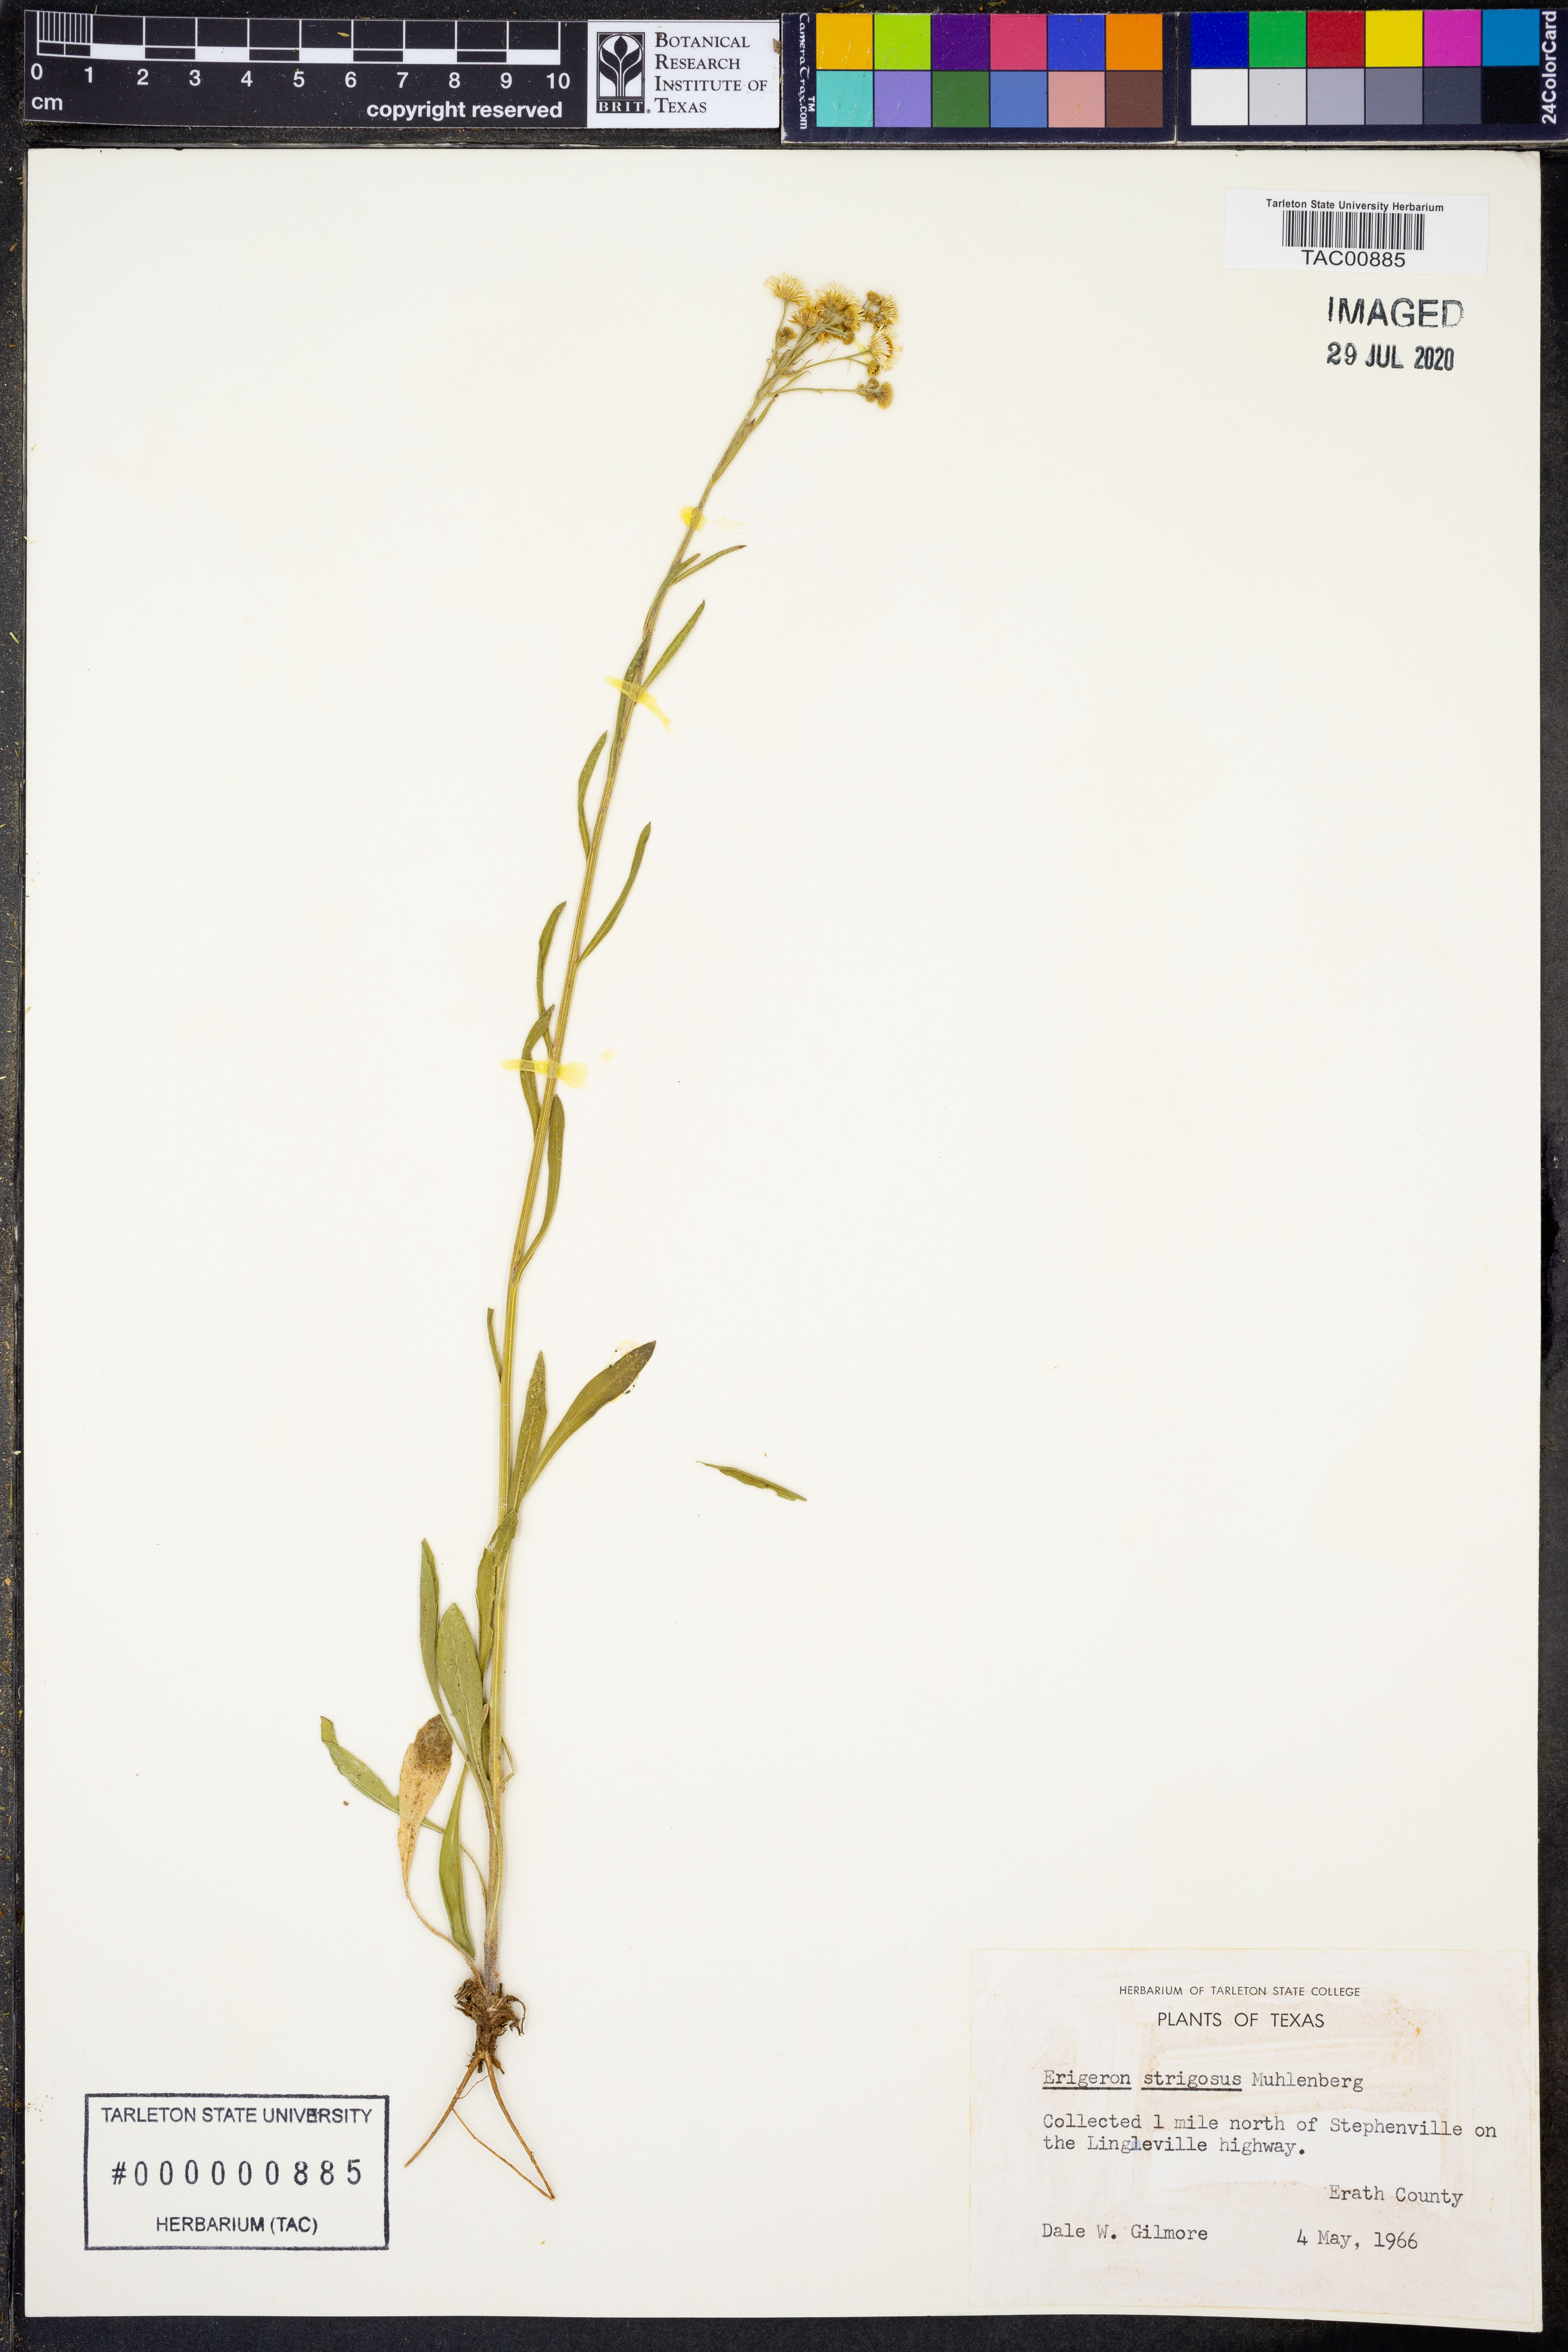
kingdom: Plantae
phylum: Tracheophyta
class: Magnoliopsida
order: Asterales
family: Asteraceae
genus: Erigeron
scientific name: Erigeron strigosus
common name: Common eastern fleabane
